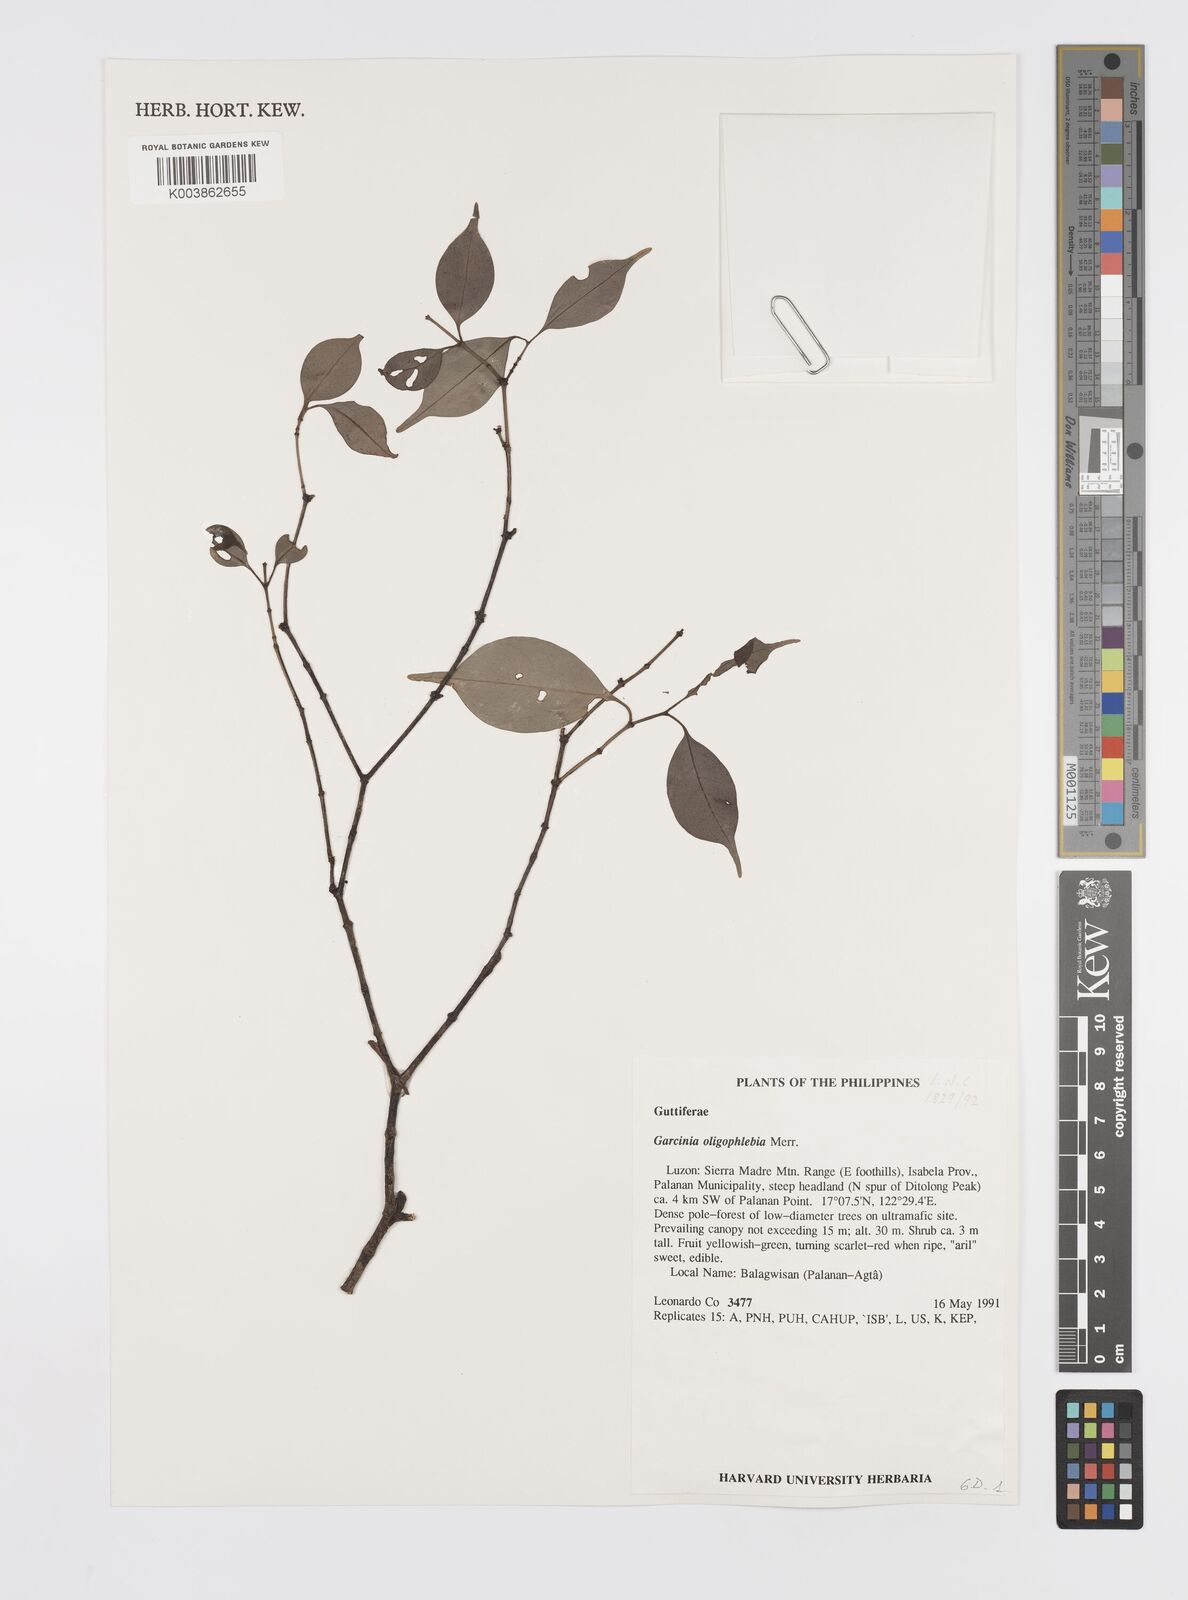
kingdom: Plantae
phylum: Tracheophyta
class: Magnoliopsida
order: Malpighiales
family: Clusiaceae
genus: Garcinia
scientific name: Garcinia rubra
